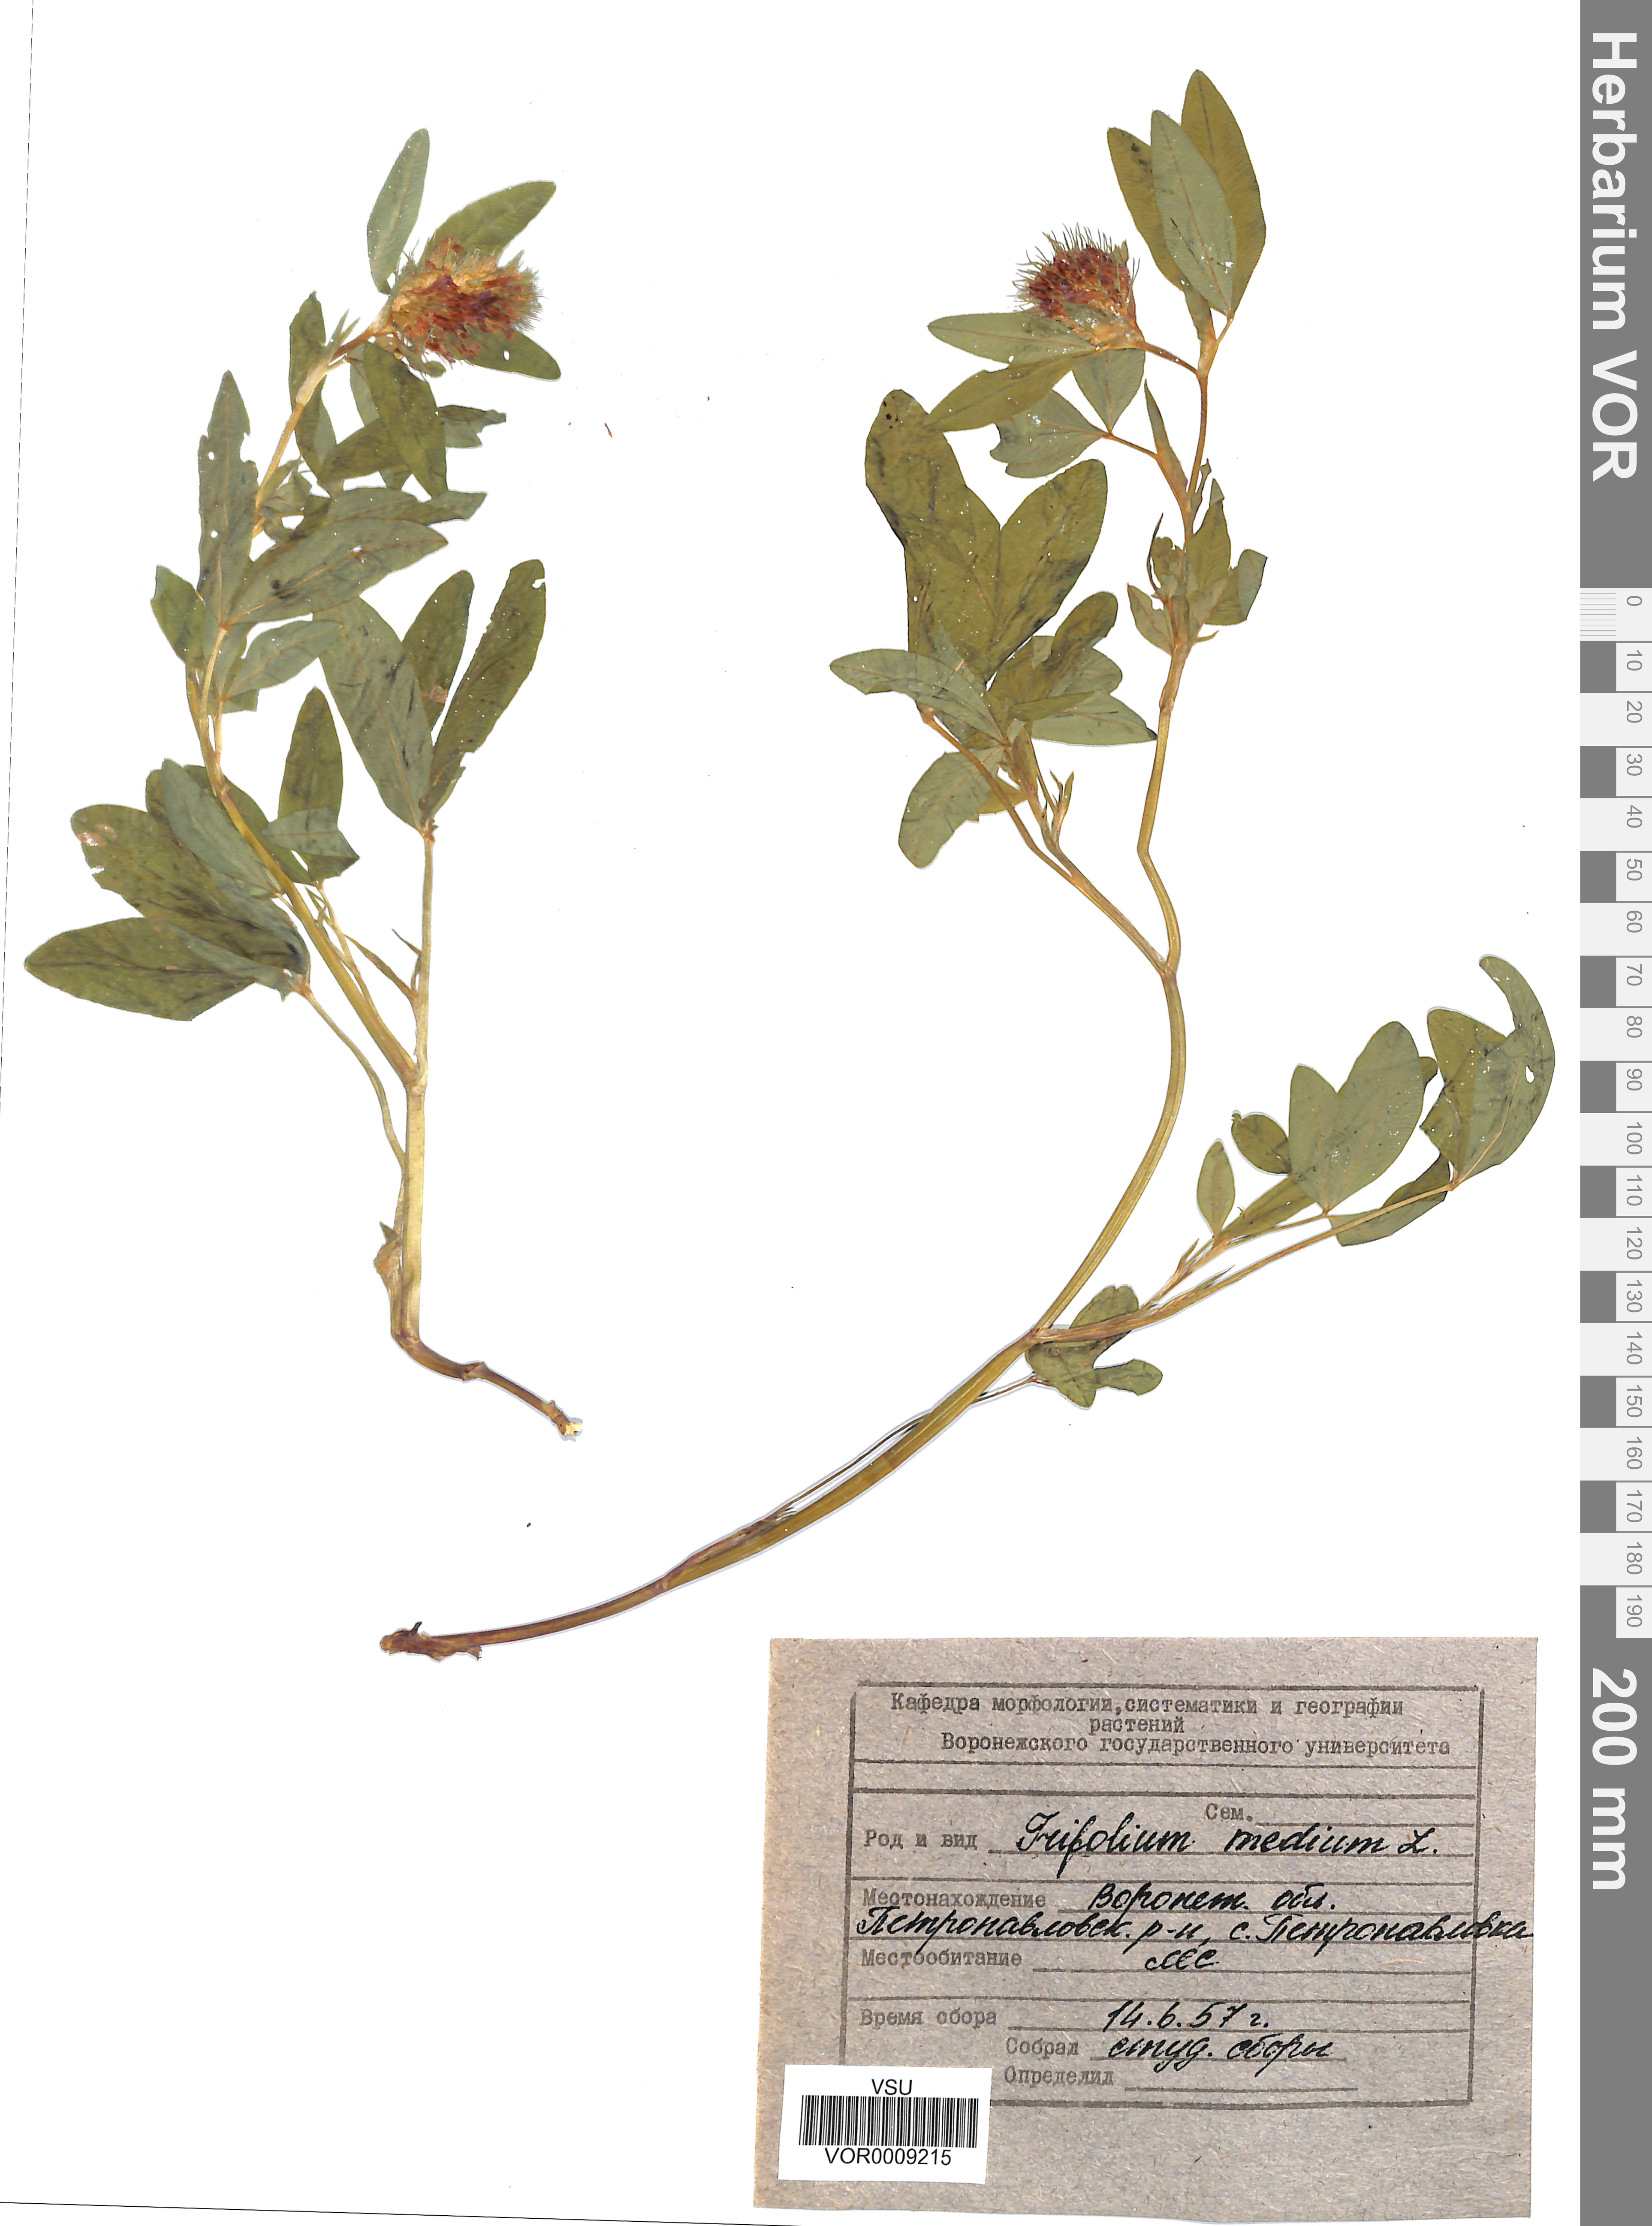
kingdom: Plantae
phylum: Tracheophyta
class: Magnoliopsida
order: Fabales
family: Fabaceae
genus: Trifolium
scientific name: Trifolium medium
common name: Zigzag clover
